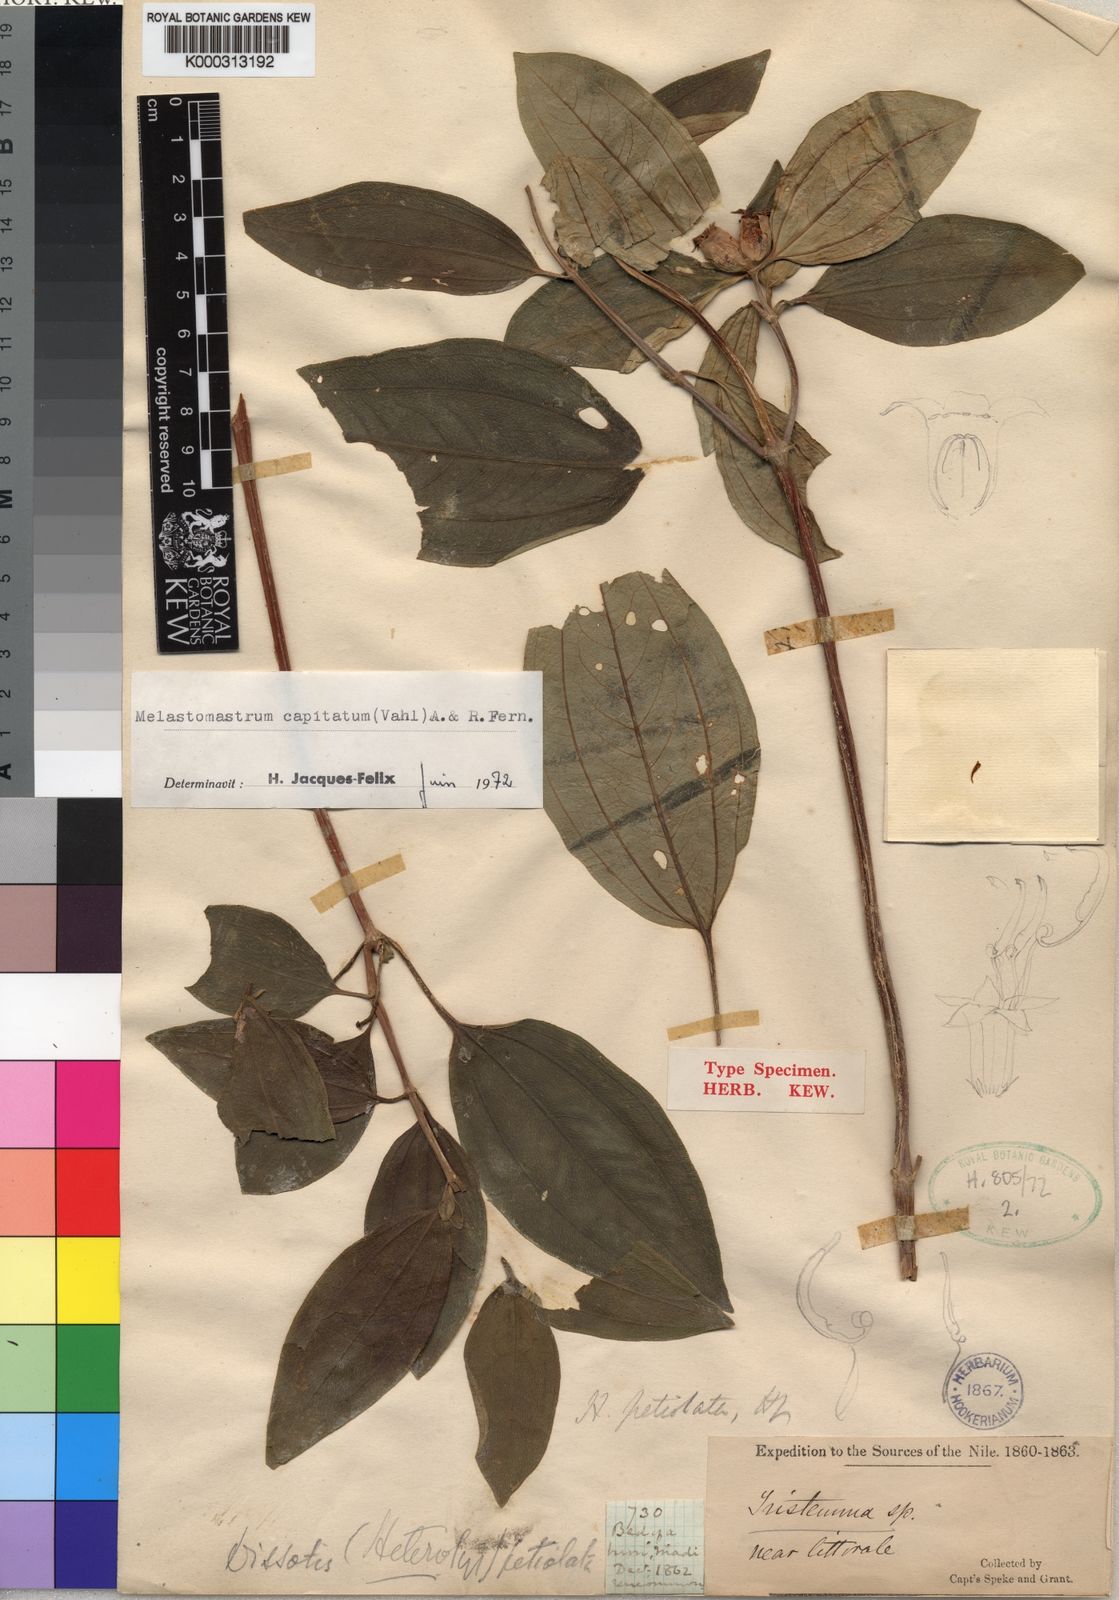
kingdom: Plantae
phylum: Tracheophyta
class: Magnoliopsida
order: Myrtales
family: Melastomataceae
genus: Melastomastrum
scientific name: Melastomastrum capitatum
